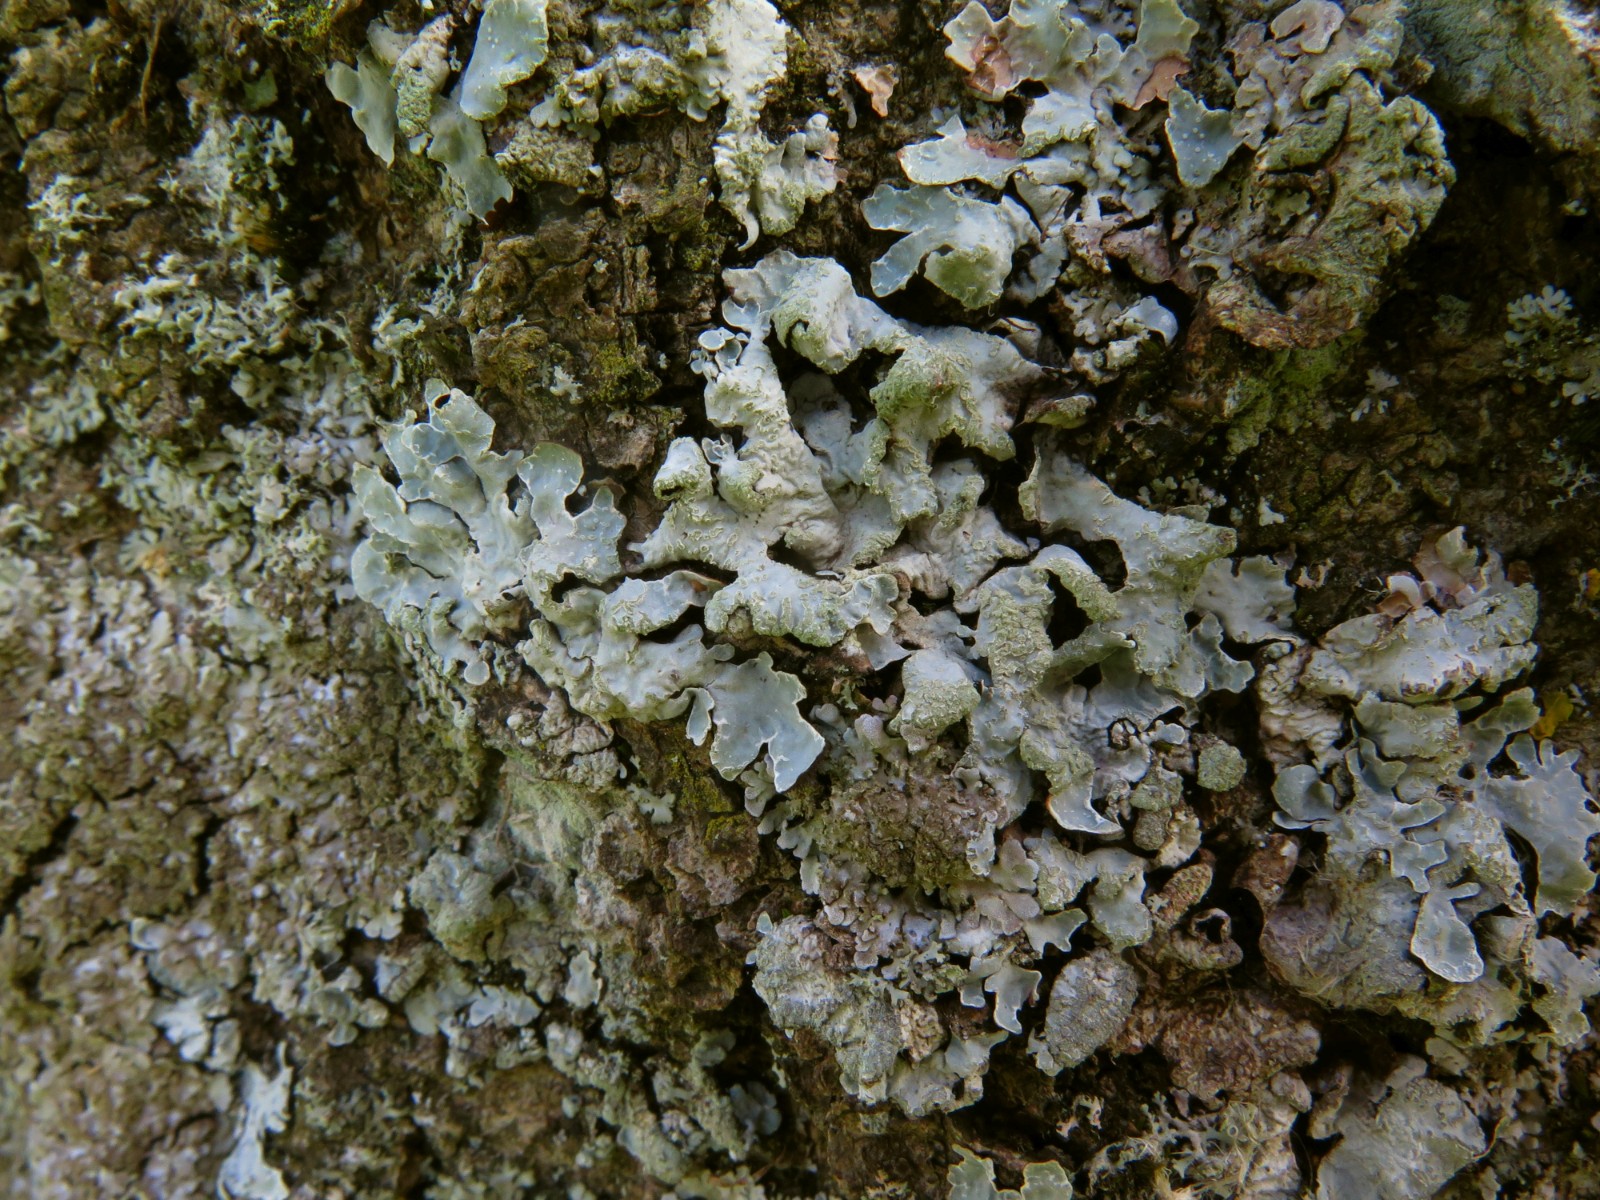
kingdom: Fungi
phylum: Ascomycota
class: Lecanoromycetes
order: Lecanorales
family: Parmeliaceae
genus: Parmelia
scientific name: Parmelia sulcata
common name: rynket skållav
